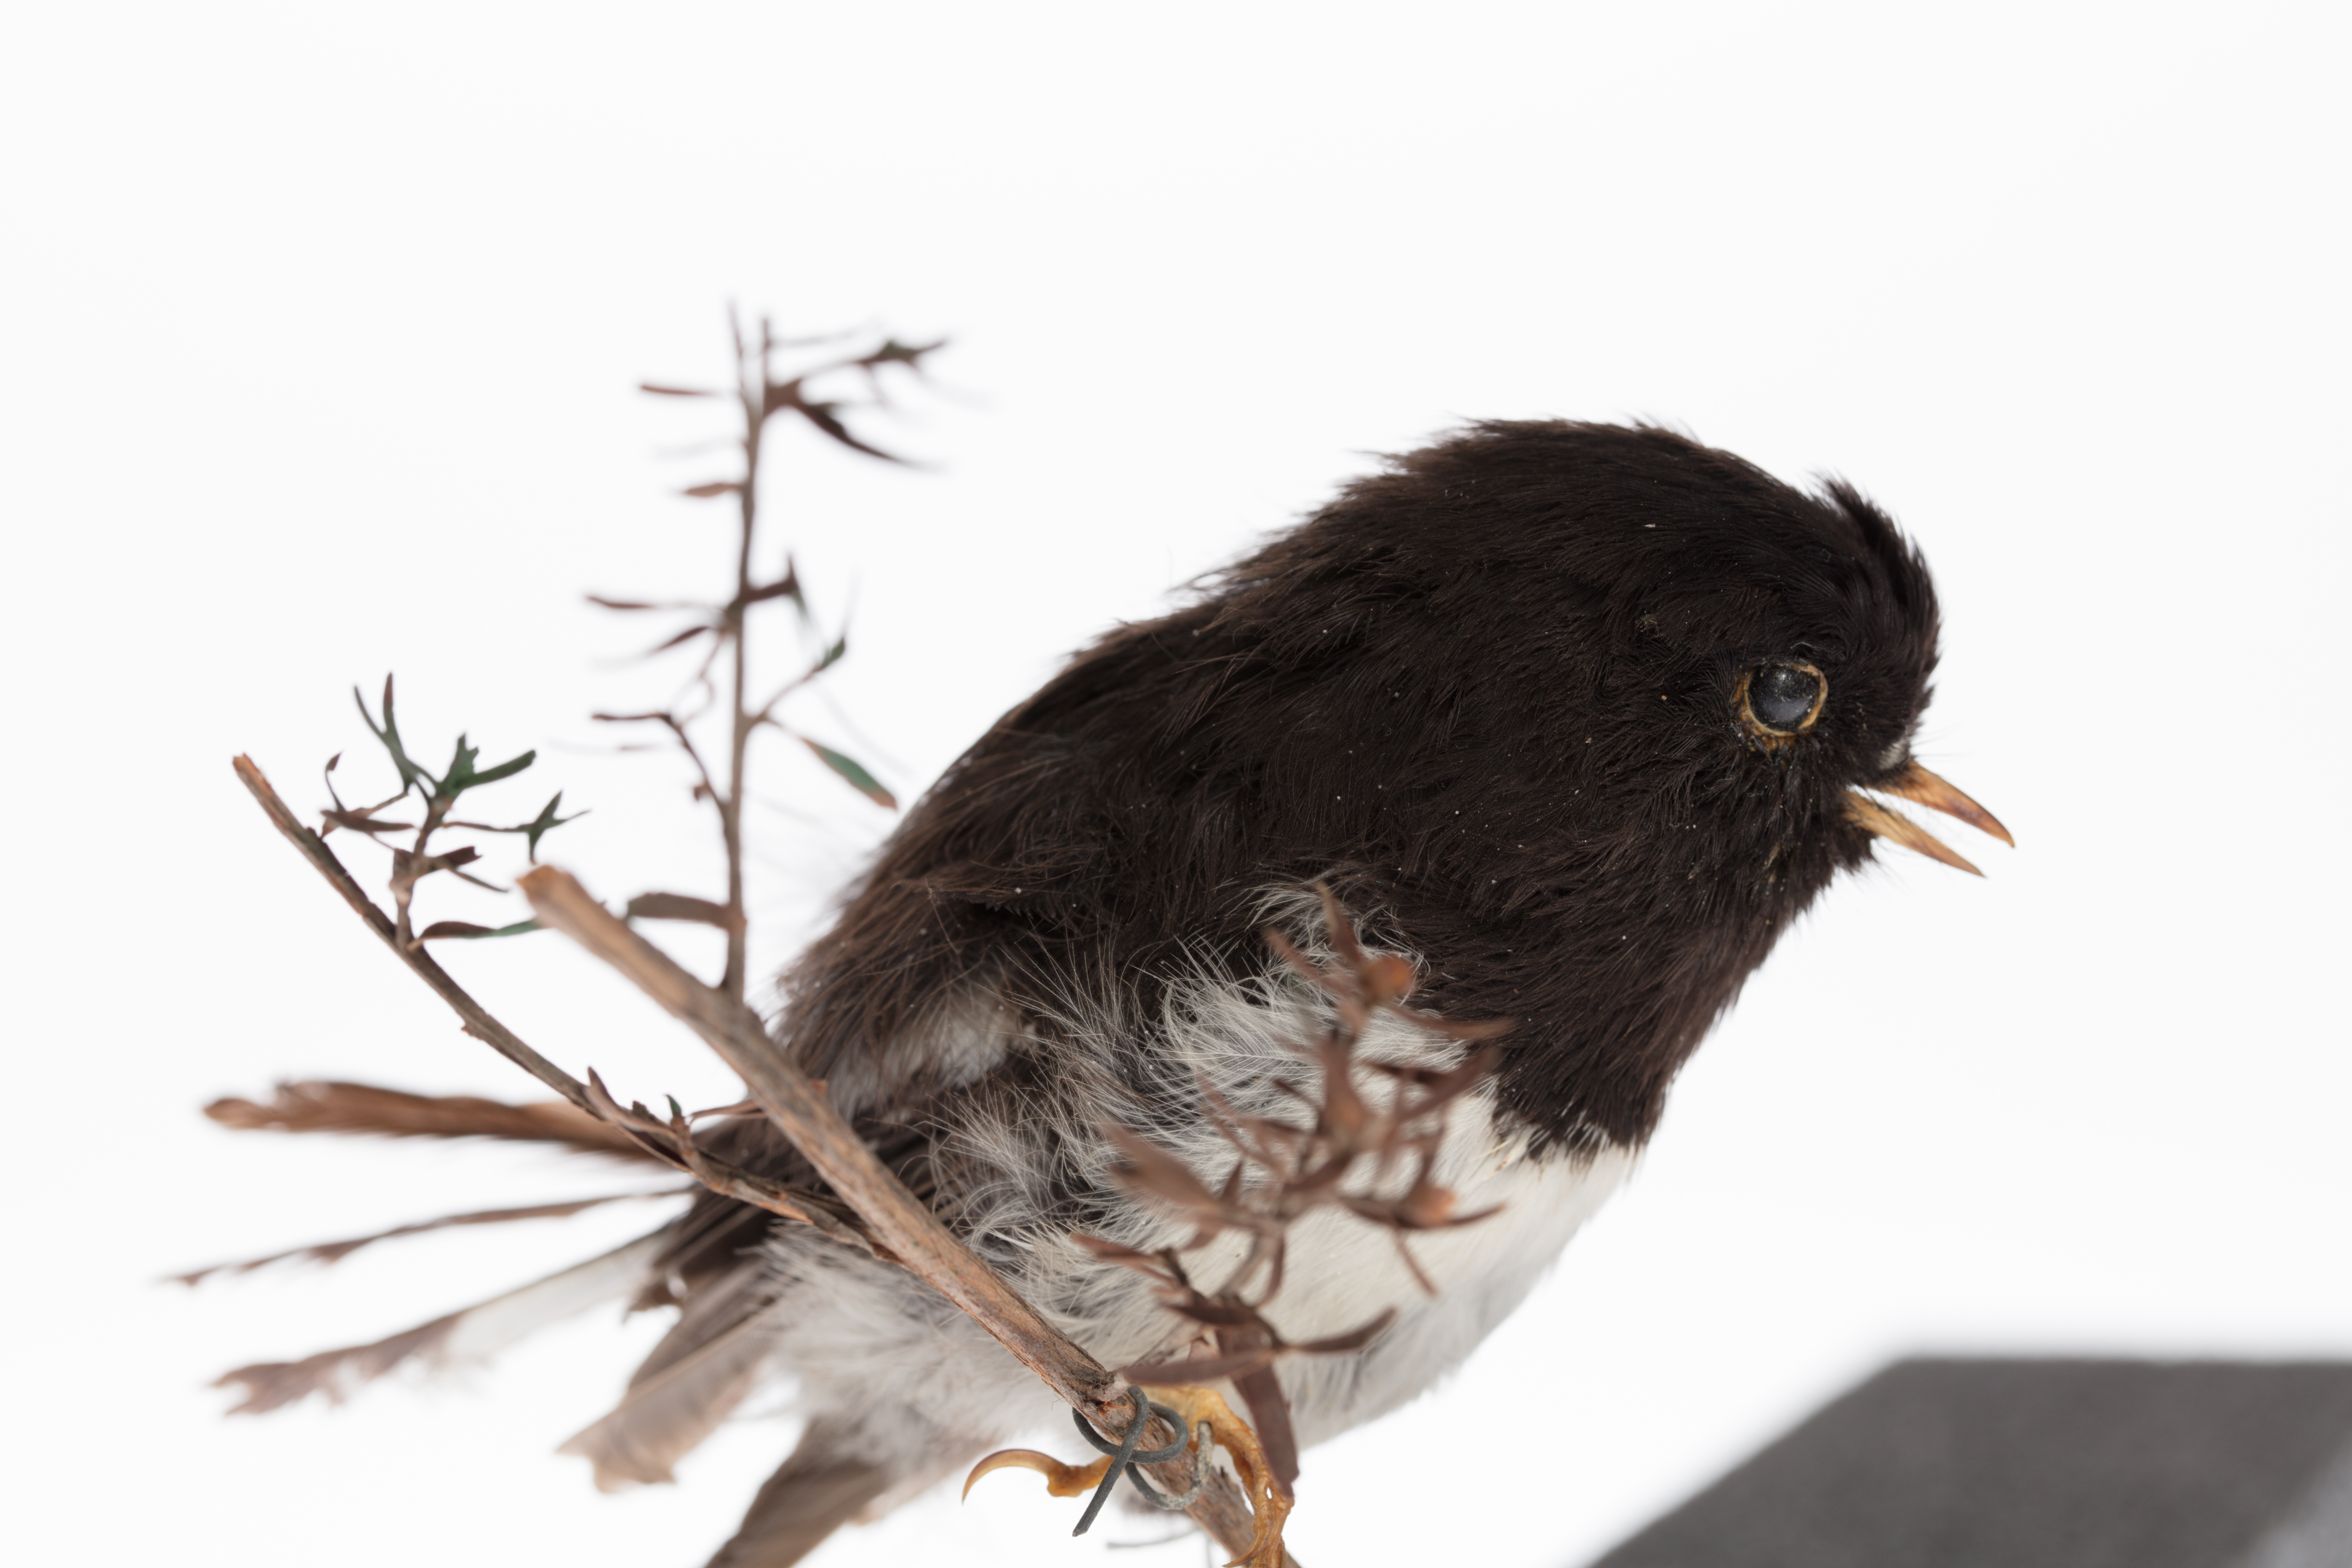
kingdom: Animalia
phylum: Chordata
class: Aves
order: Passeriformes
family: Petroicidae
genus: Petroica
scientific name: Petroica macrocephala
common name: Tomtit
